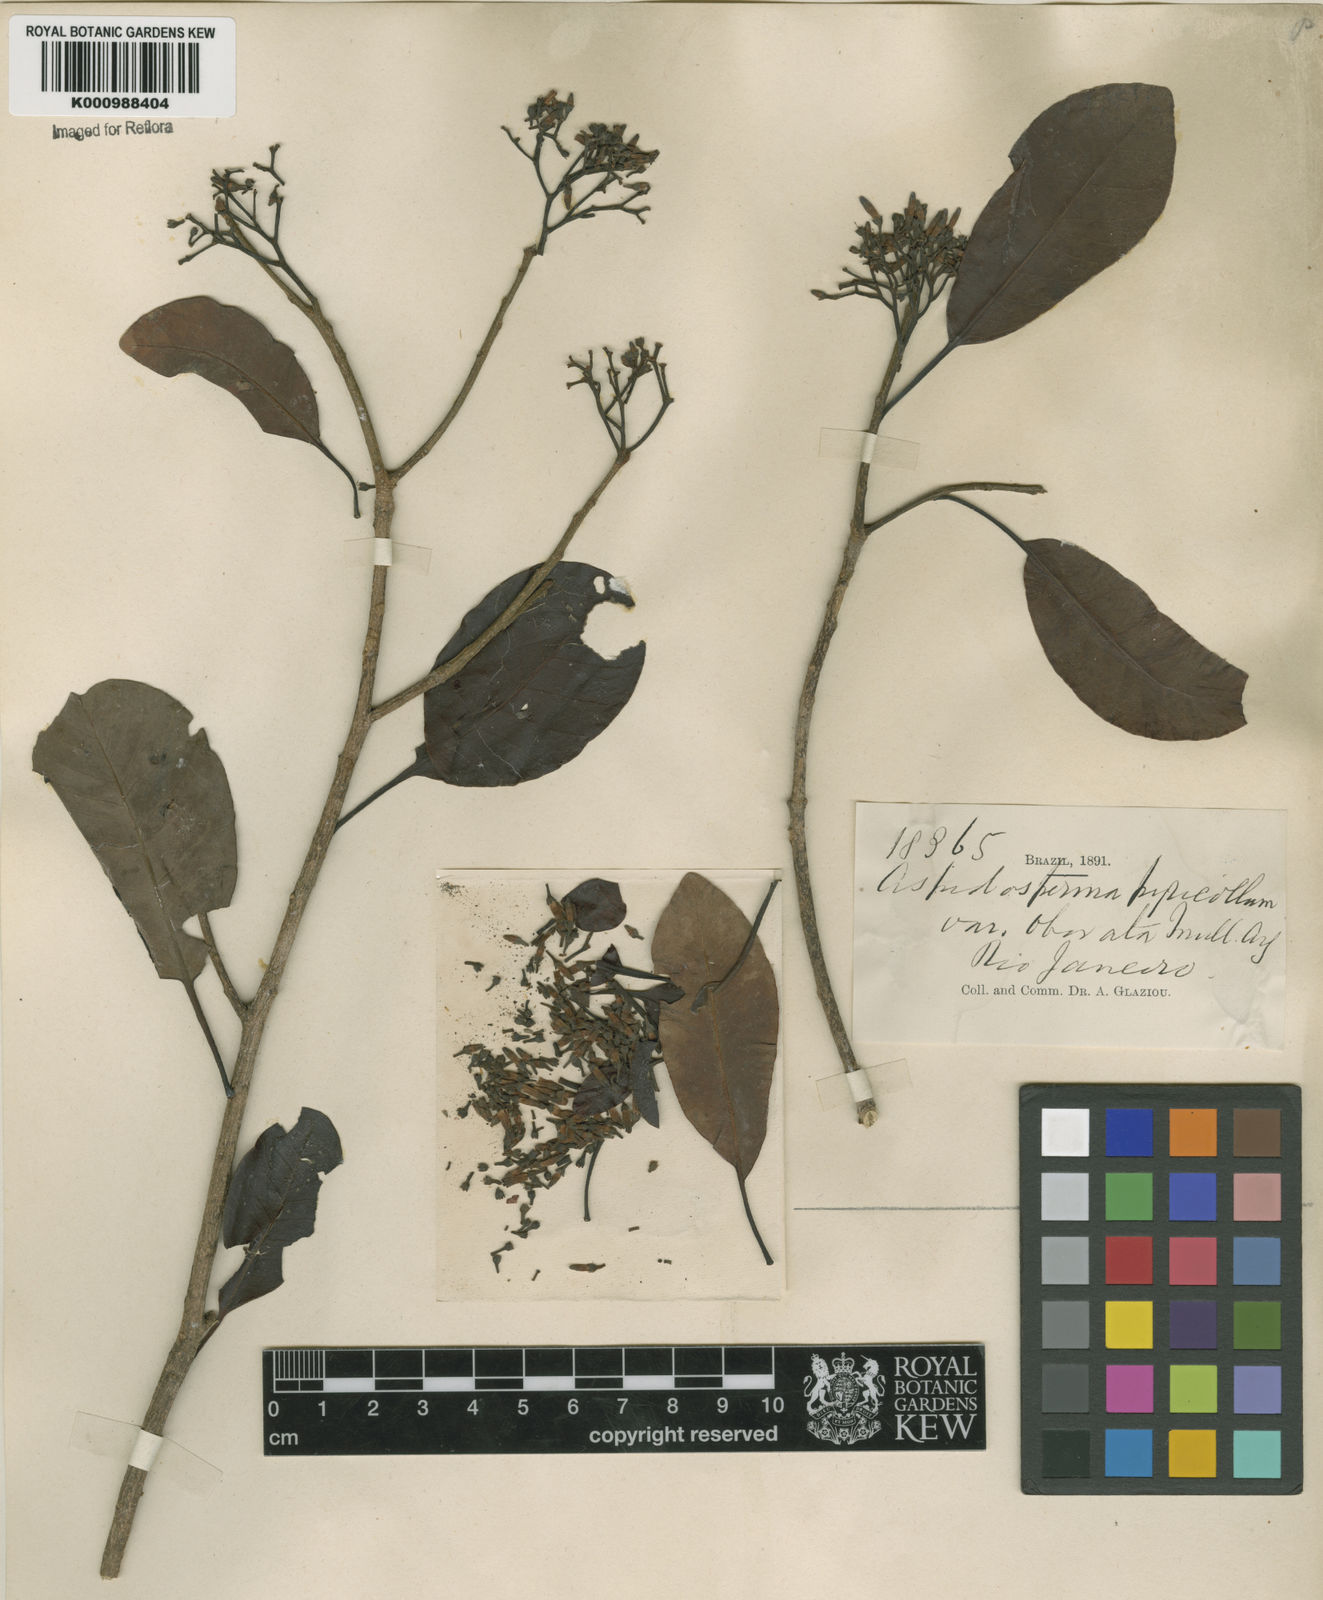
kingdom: Plantae
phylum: Tracheophyta
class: Magnoliopsida
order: Gentianales
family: Apocynaceae
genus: Aspidosperma
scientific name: Aspidosperma
